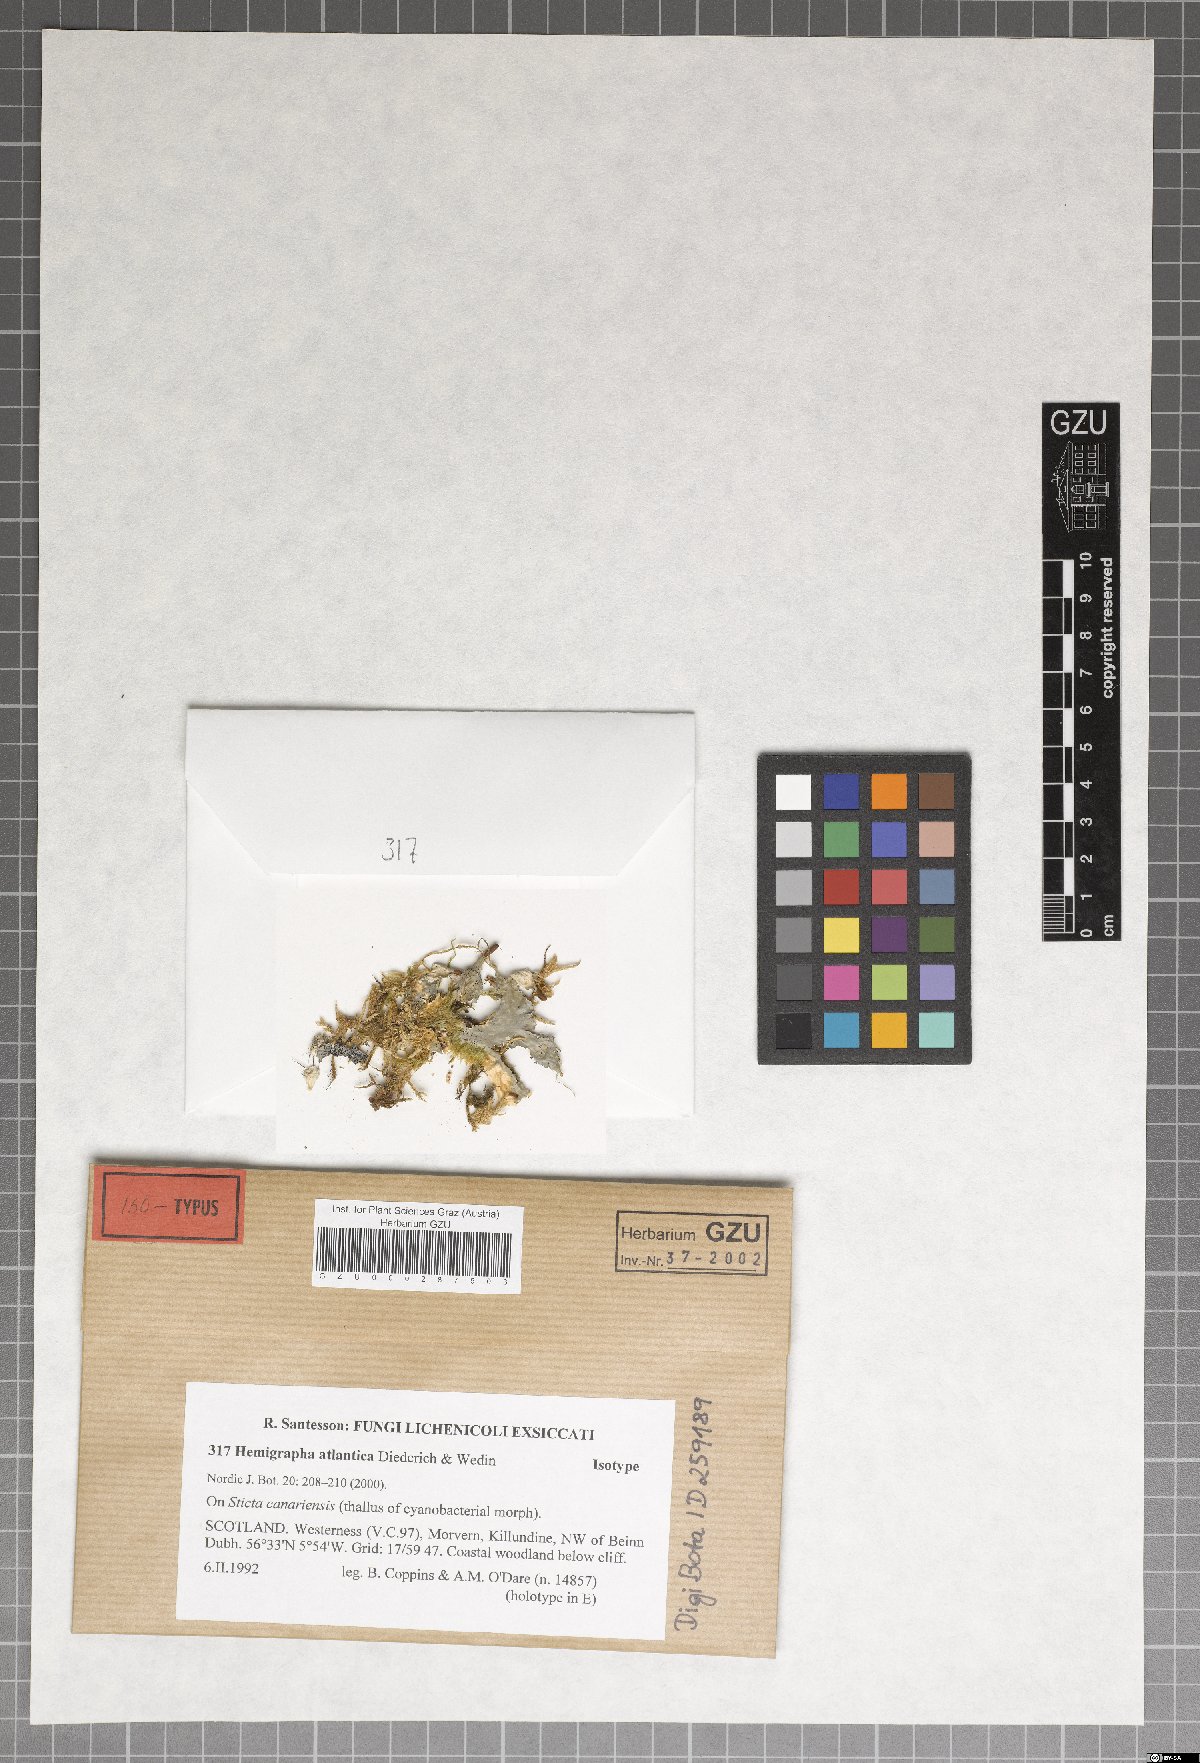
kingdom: Fungi
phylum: Ascomycota
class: Dothideomycetes
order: Asterinales
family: Hemigraphaceae
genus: Hemigrapha
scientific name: Hemigrapha atlantica
